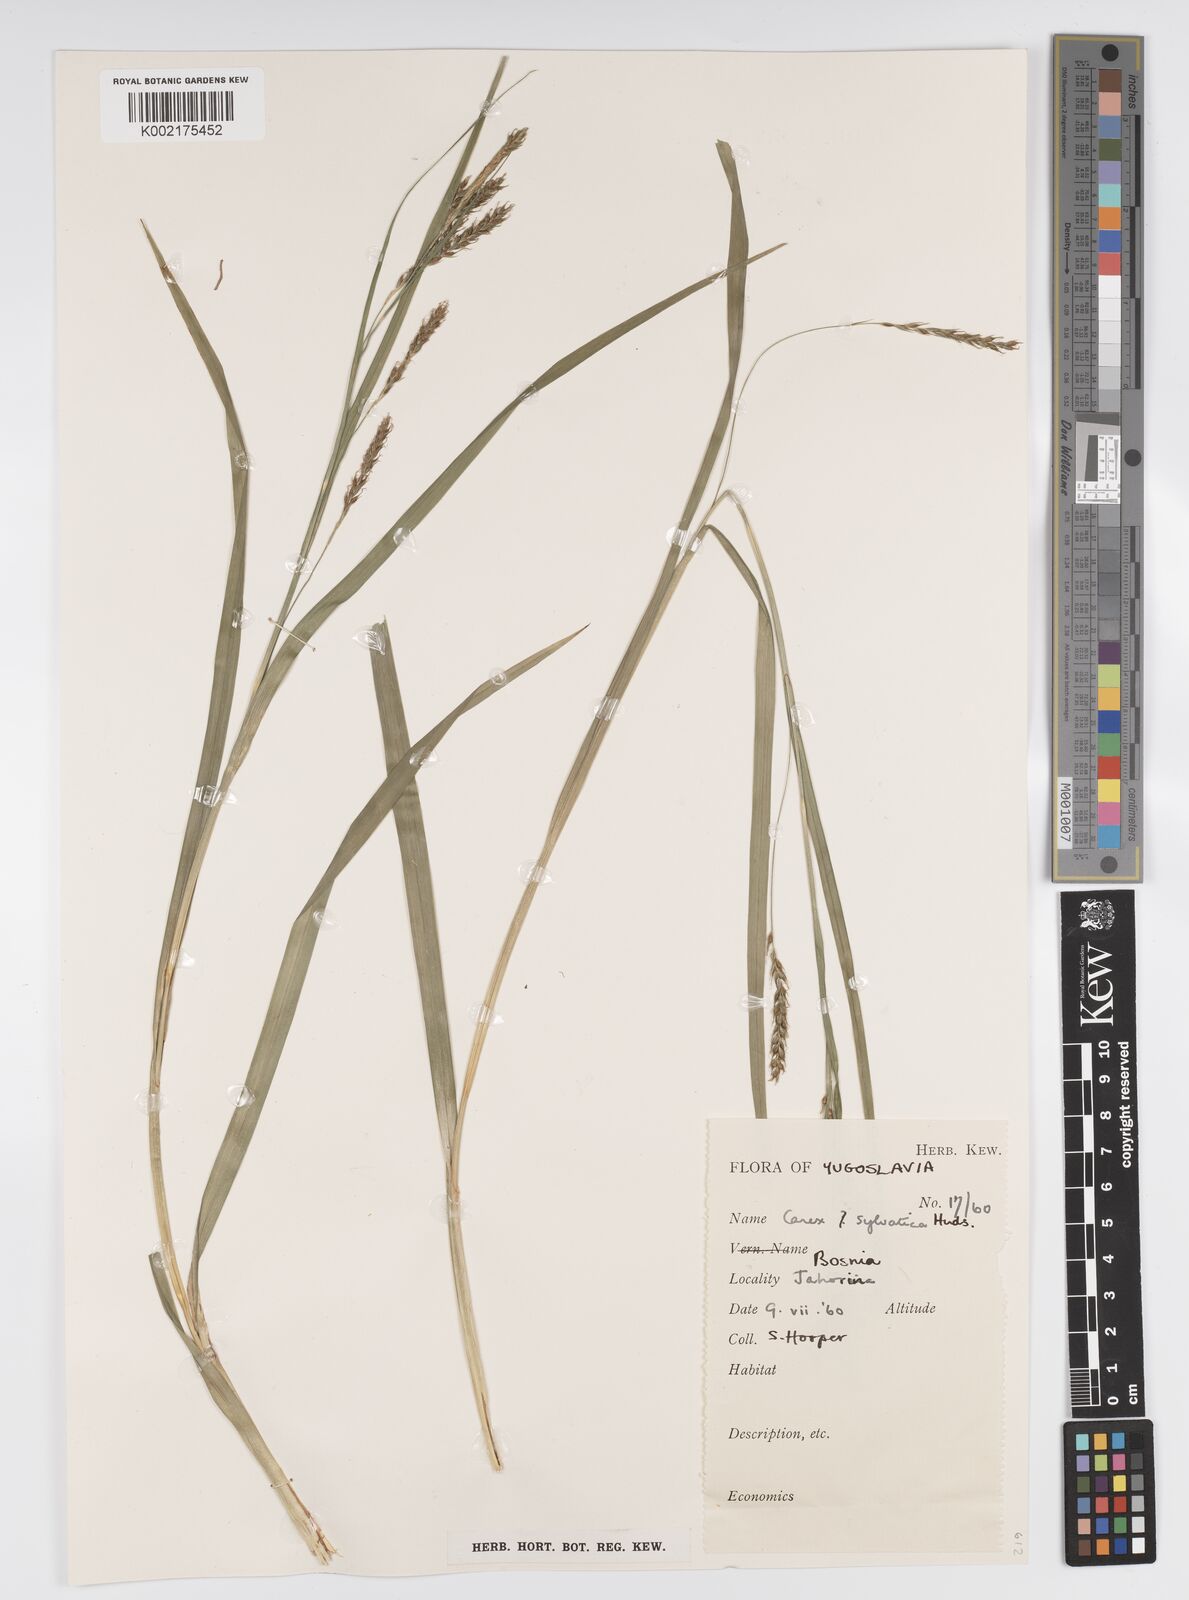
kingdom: Plantae
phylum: Tracheophyta
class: Liliopsida
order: Poales
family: Cyperaceae
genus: Carex
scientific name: Carex sylvatica
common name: Wood-sedge
